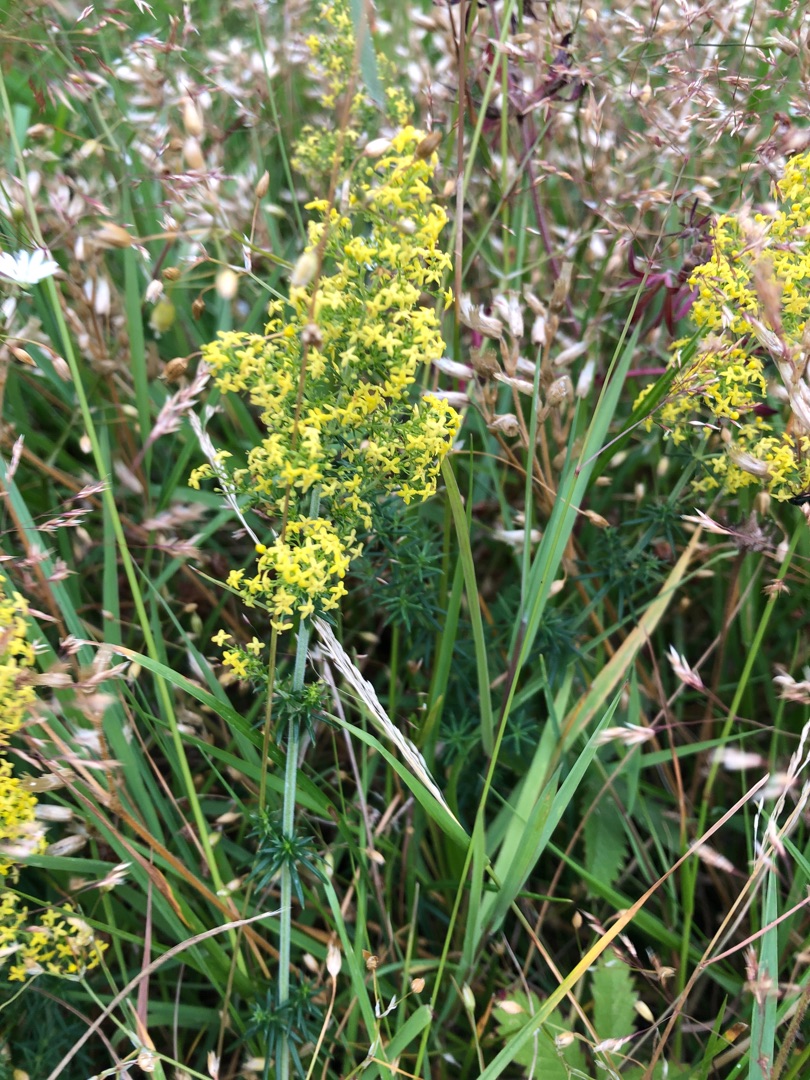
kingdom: Plantae
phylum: Tracheophyta
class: Magnoliopsida
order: Gentianales
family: Rubiaceae
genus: Galium
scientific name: Galium verum
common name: Gul snerre
